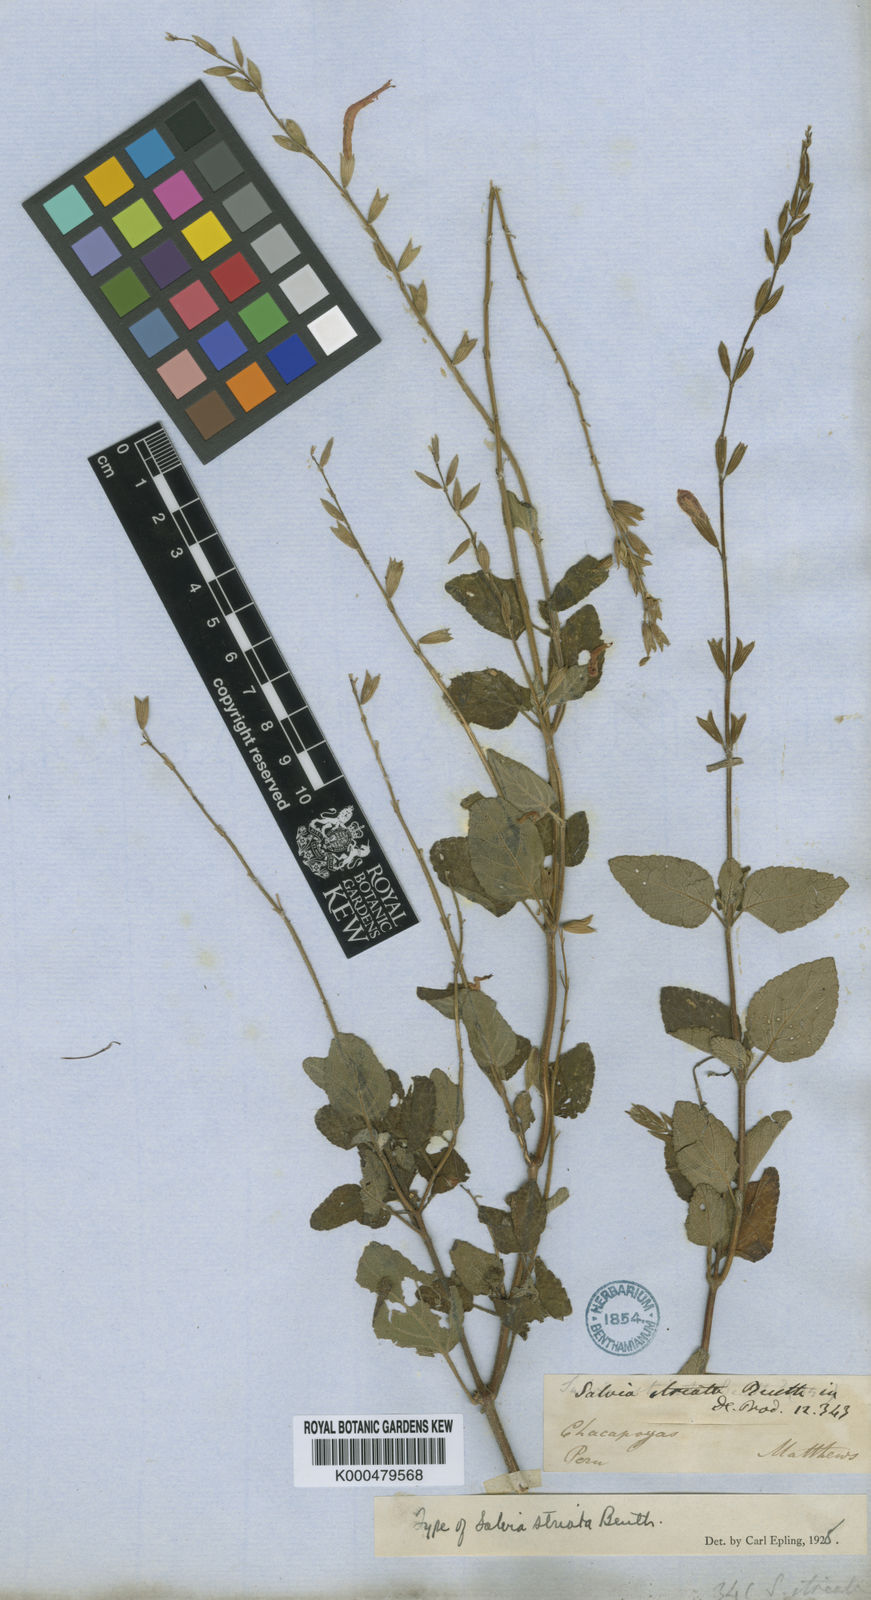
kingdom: Plantae
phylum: Tracheophyta
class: Magnoliopsida
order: Lamiales
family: Lamiaceae
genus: Salvia
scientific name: Salvia striata
